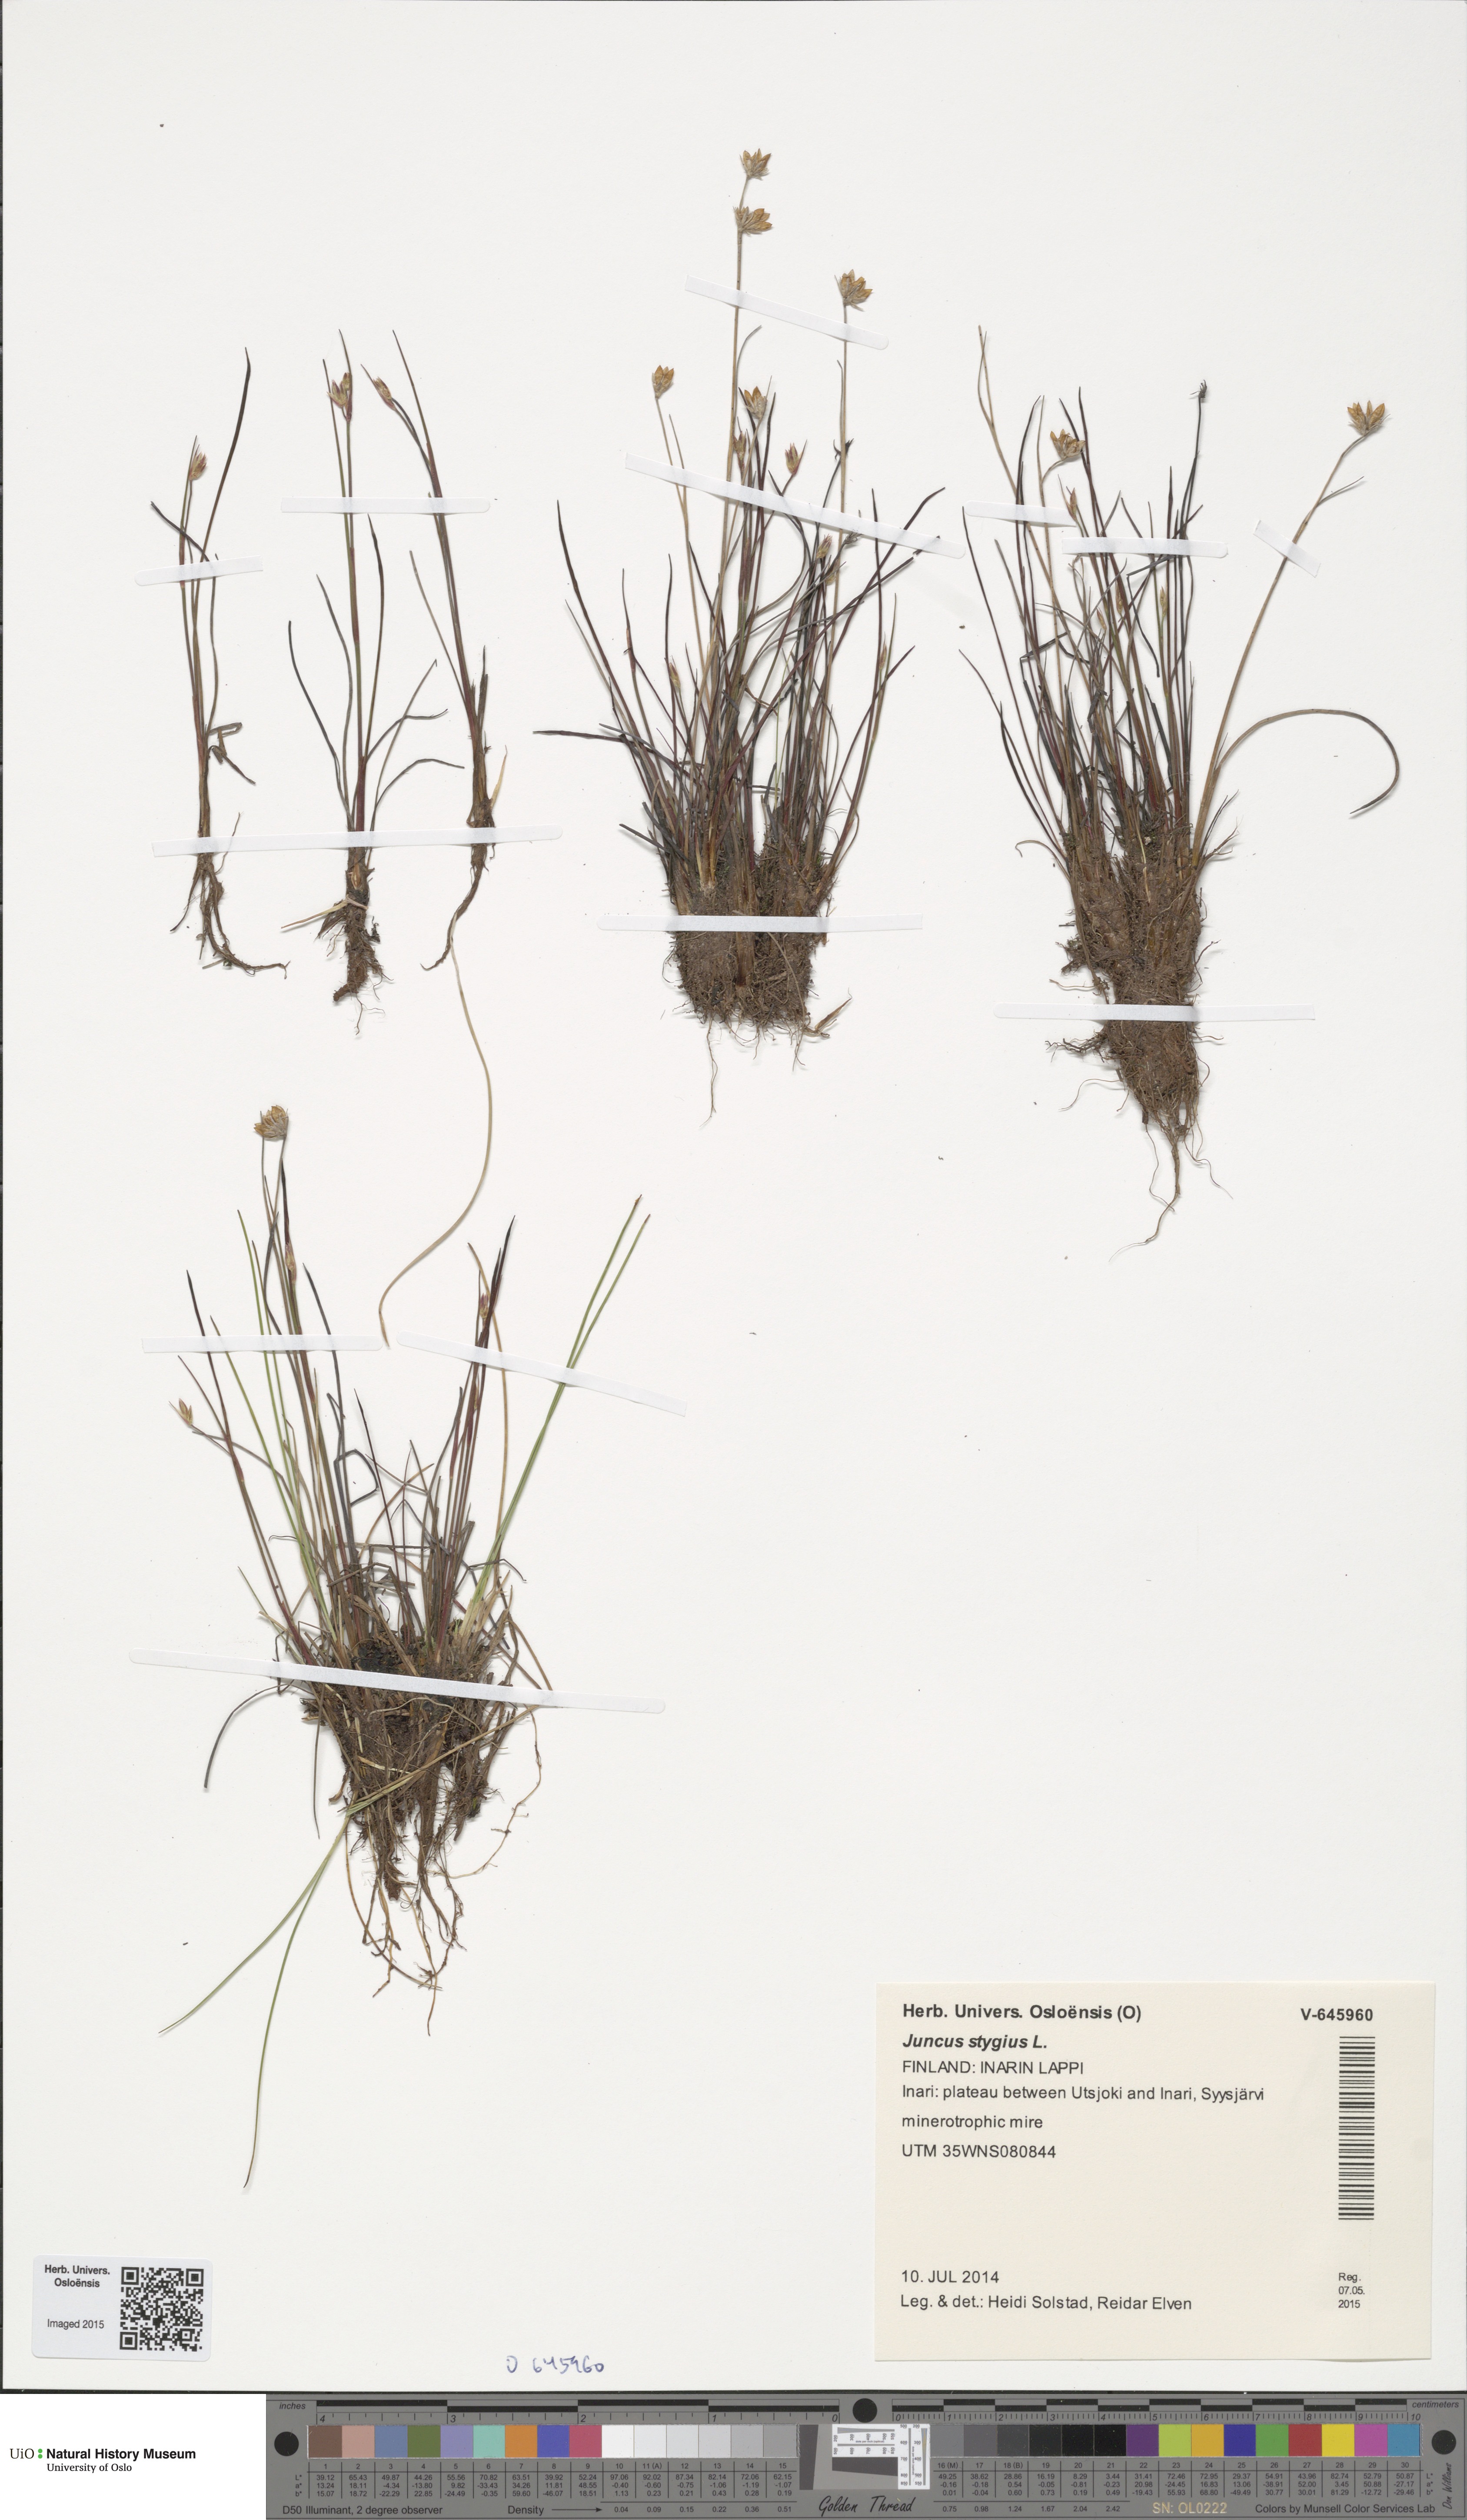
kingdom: Plantae
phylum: Tracheophyta
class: Liliopsida
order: Poales
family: Juncaceae
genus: Juncus
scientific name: Juncus stygius
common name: Bog rush
